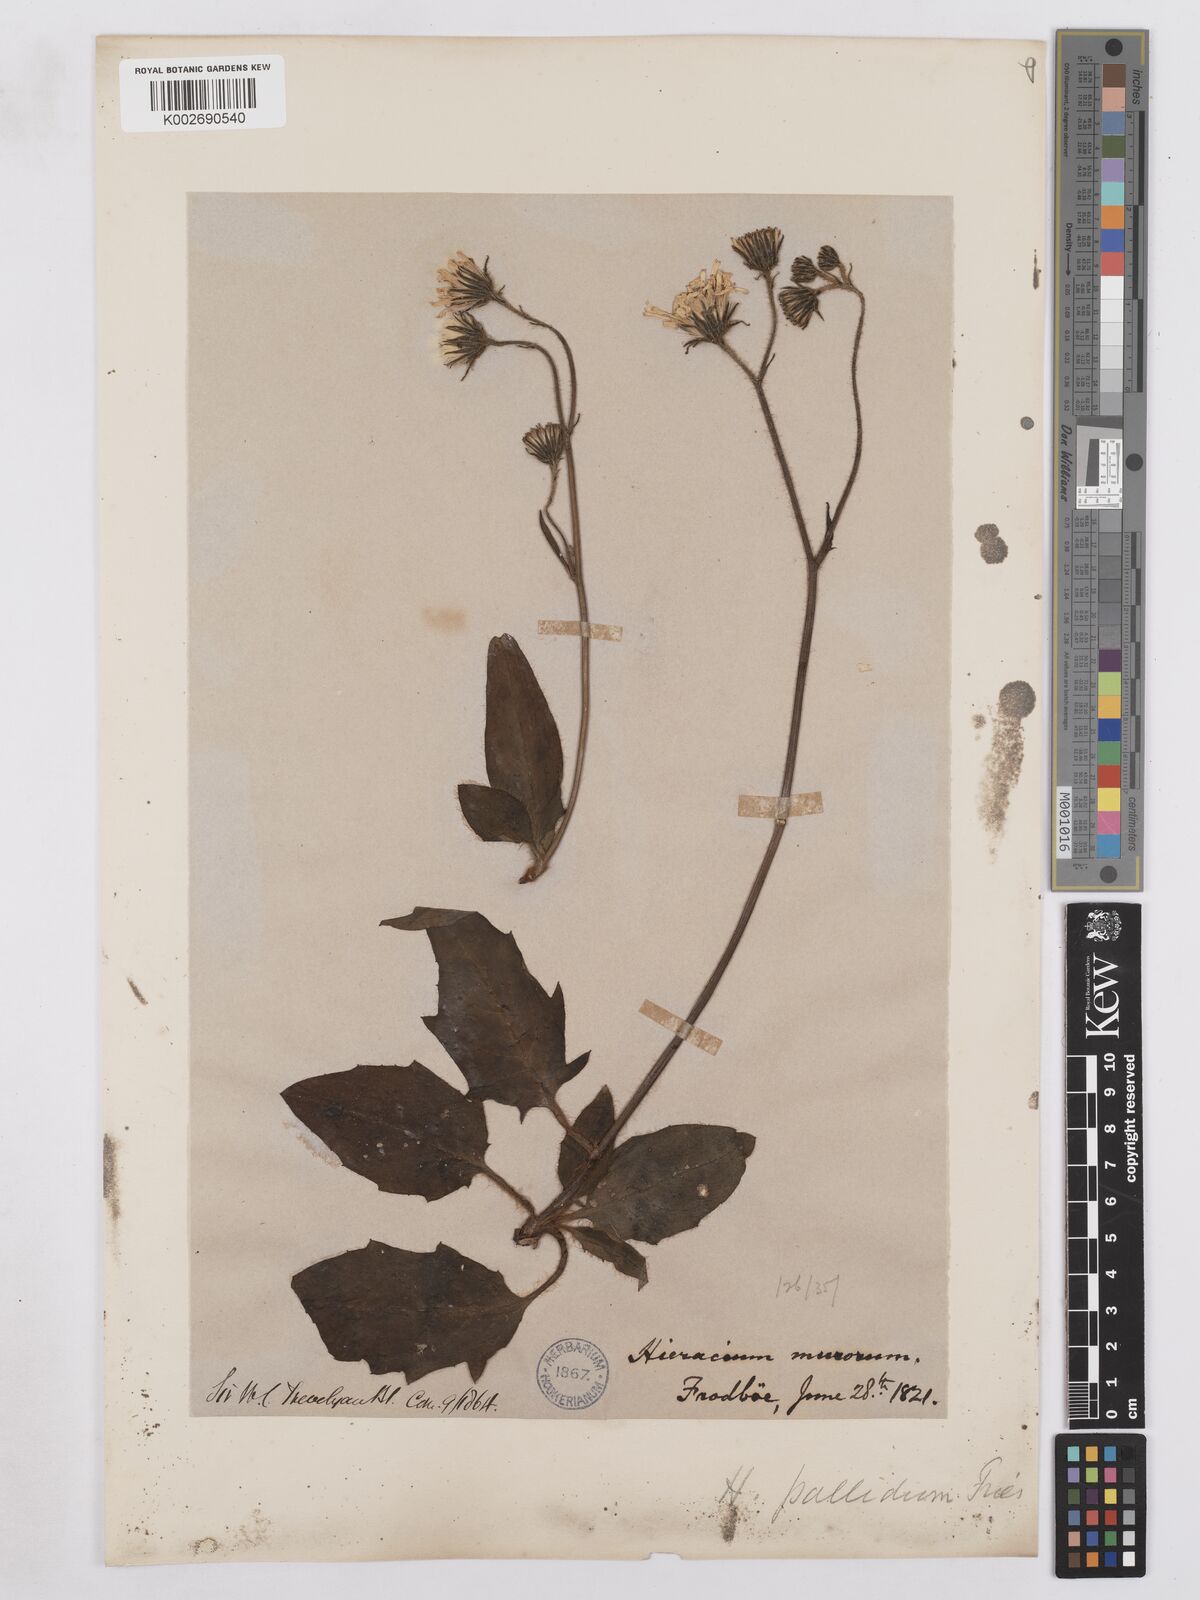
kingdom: Plantae
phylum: Tracheophyta
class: Magnoliopsida
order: Asterales
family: Asteraceae
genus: Hieracium
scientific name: Hieracium schmidtii
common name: Schmidt's hawkweed
